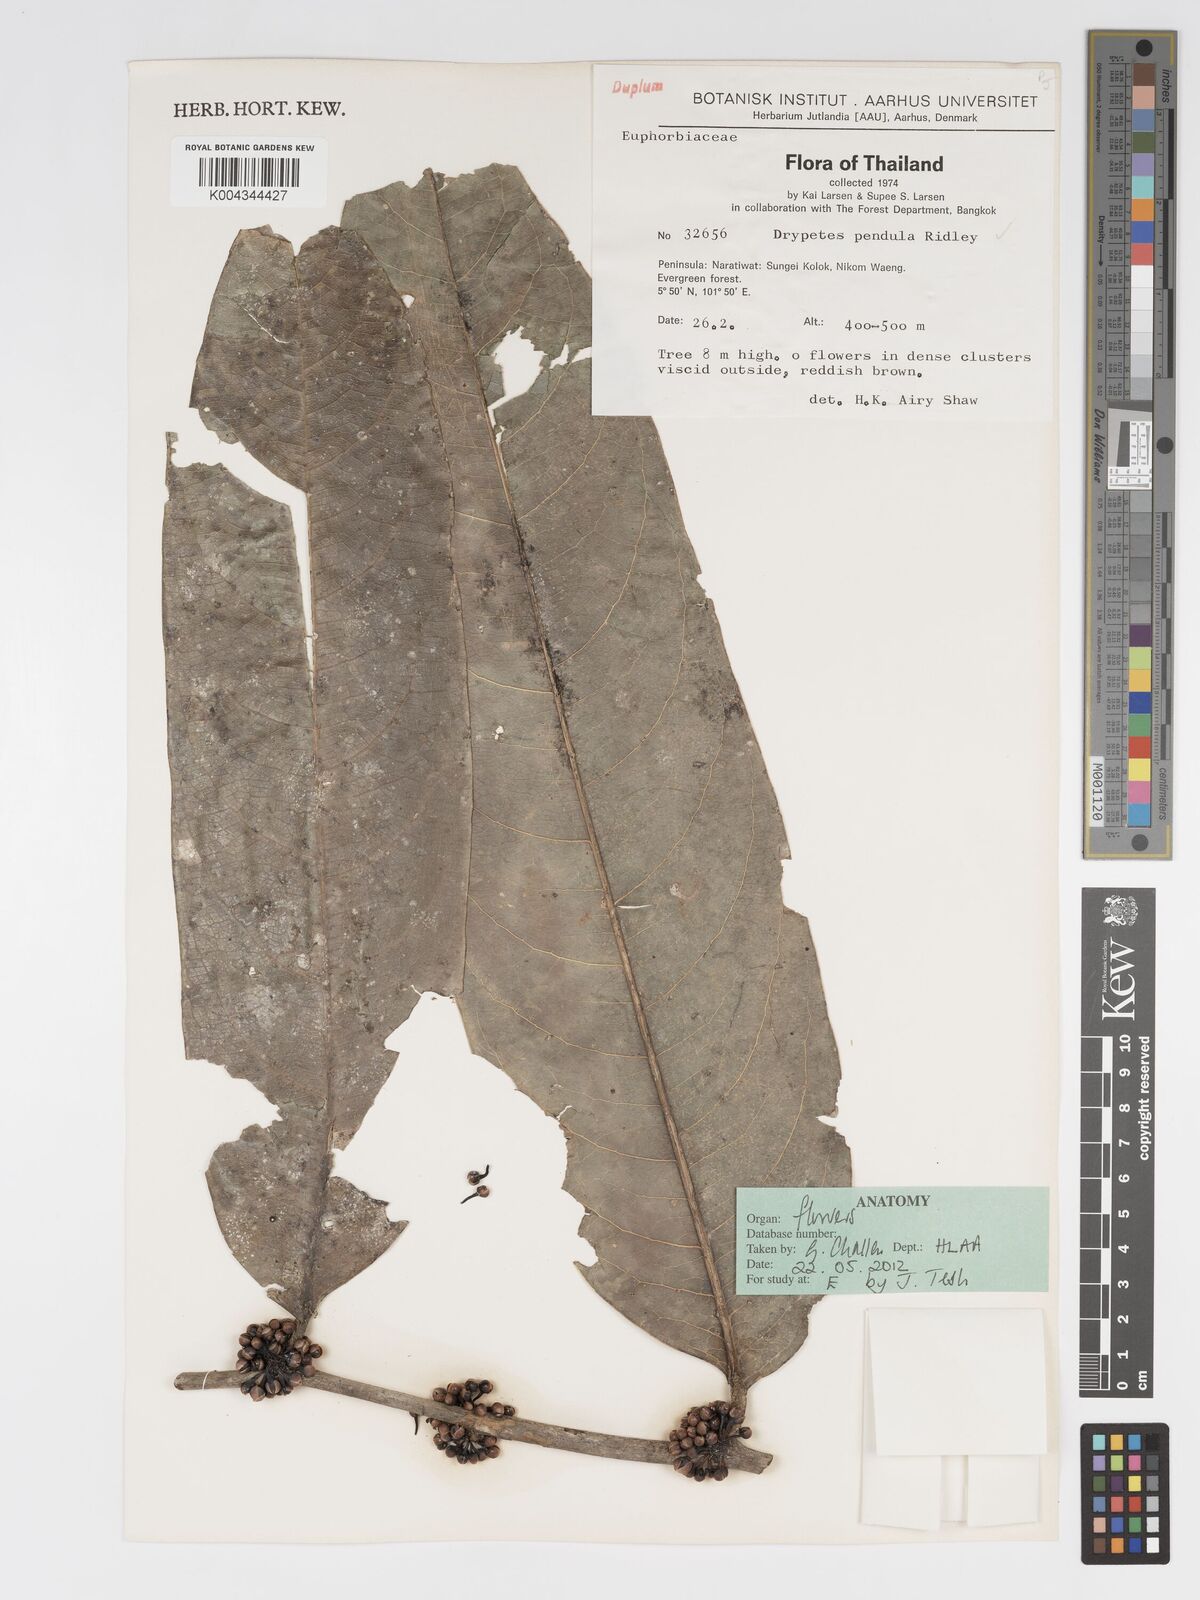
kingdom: Plantae
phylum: Tracheophyta
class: Magnoliopsida
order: Malpighiales
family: Putranjivaceae
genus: Drypetes
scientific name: Drypetes pendula
